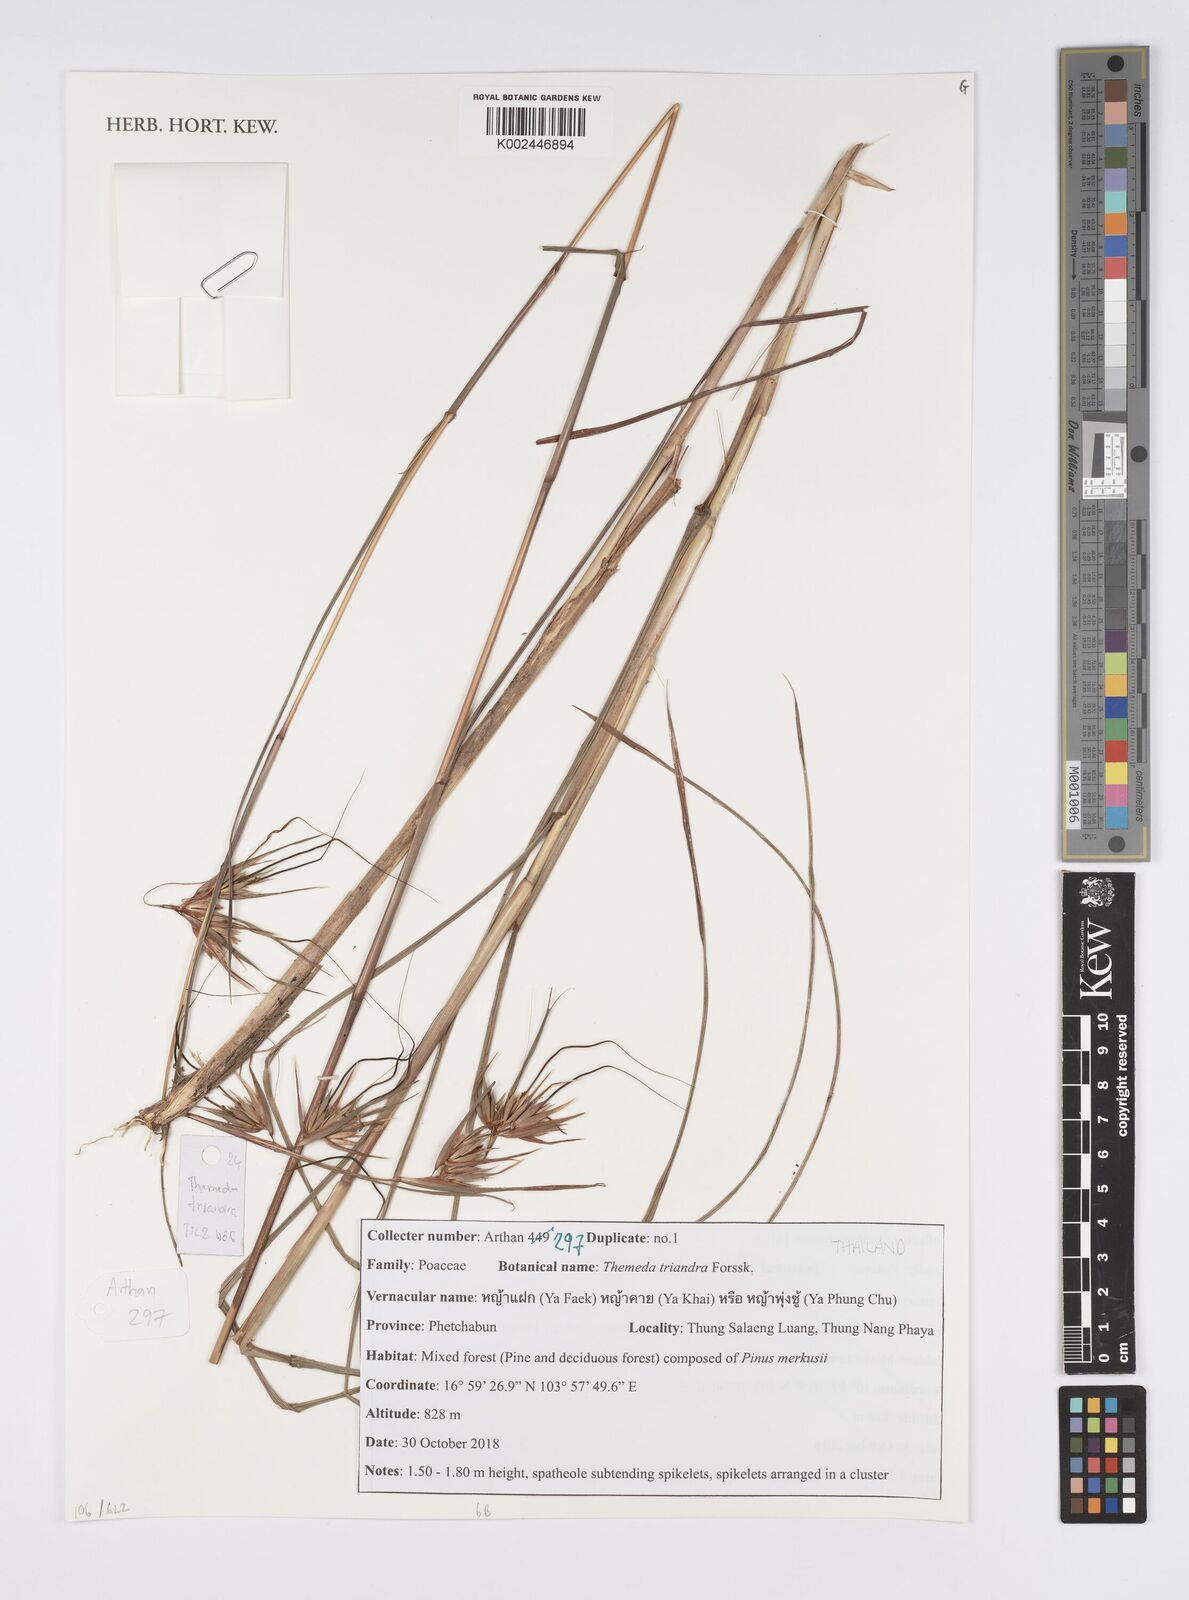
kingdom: Plantae
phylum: Tracheophyta
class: Liliopsida
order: Poales
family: Poaceae
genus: Themeda
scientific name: Themeda triandra
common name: Kangaroo grass
